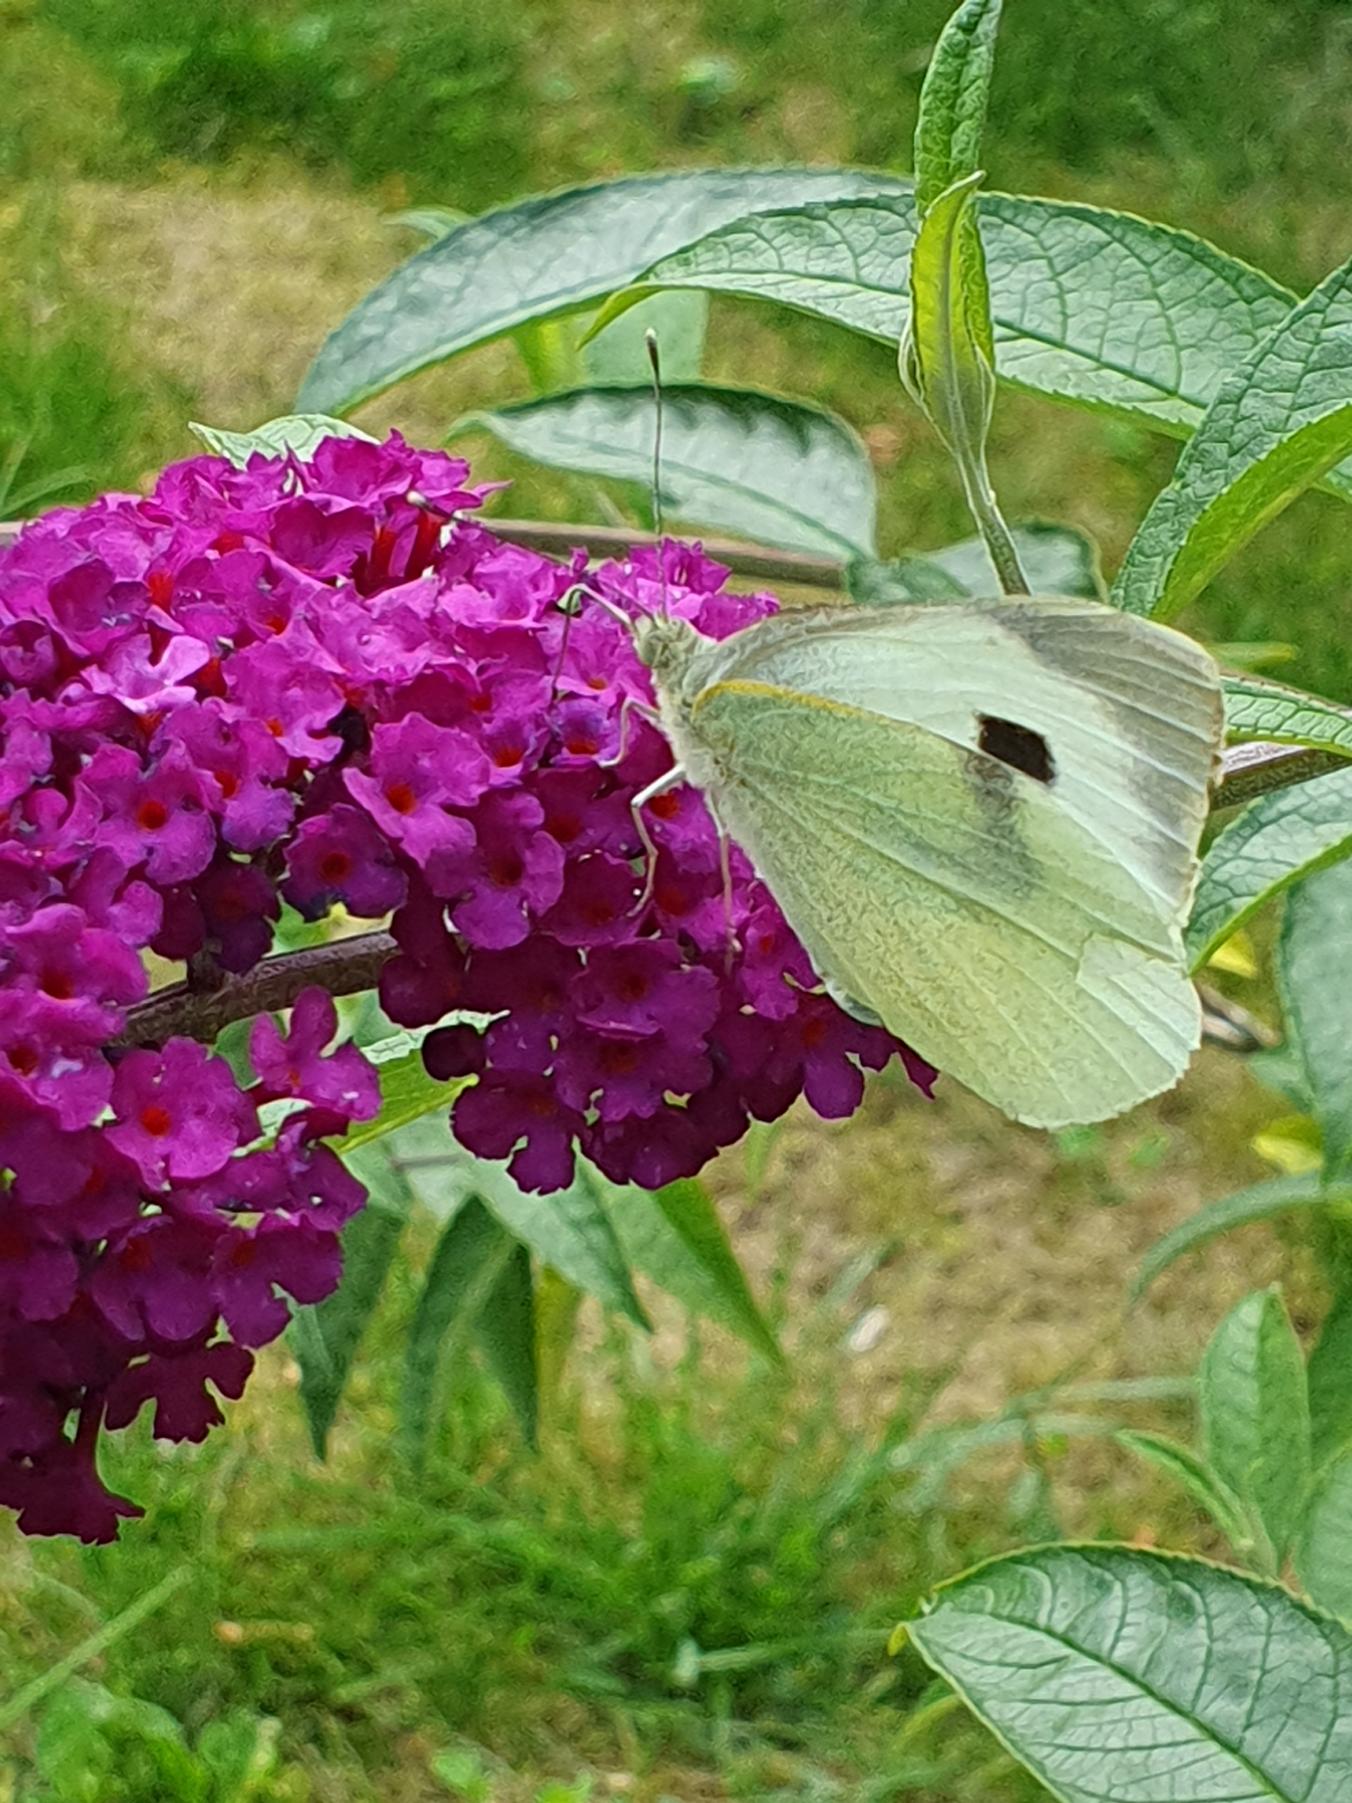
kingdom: Animalia
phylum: Arthropoda
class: Insecta
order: Lepidoptera
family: Pieridae
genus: Pieris
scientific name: Pieris brassicae
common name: Stor kålsommerfugl
